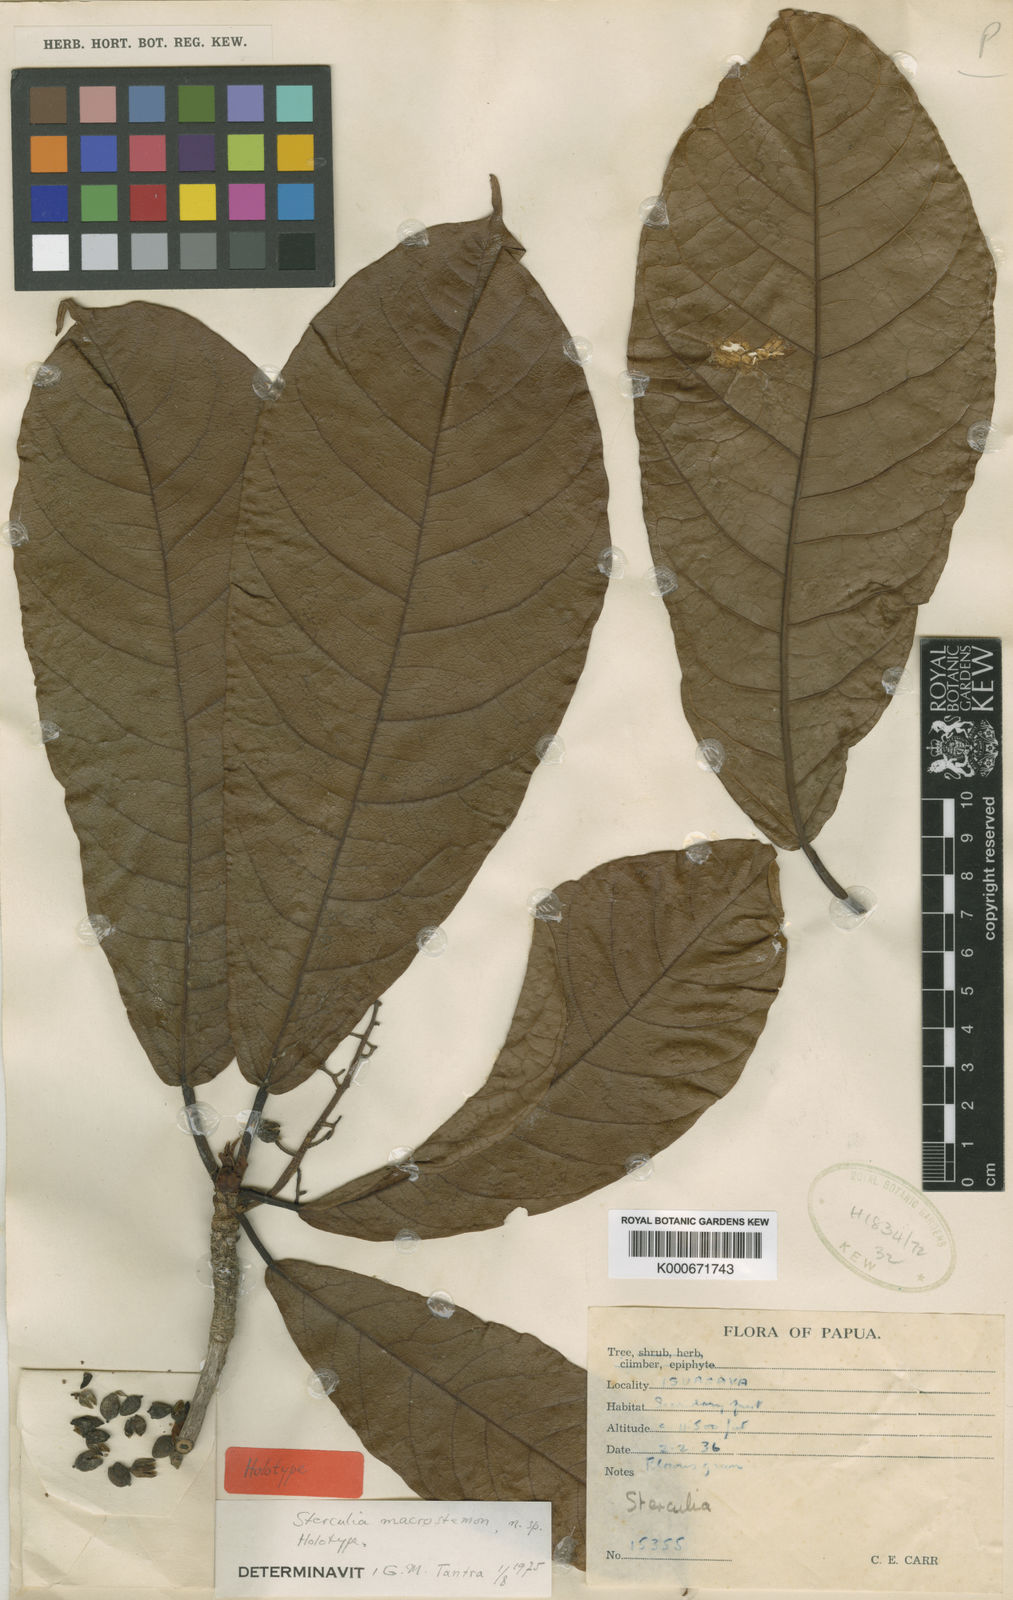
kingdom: Plantae
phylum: Tracheophyta
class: Magnoliopsida
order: Malvales
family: Malvaceae
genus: Sterculia
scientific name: Sterculia macrostemon
